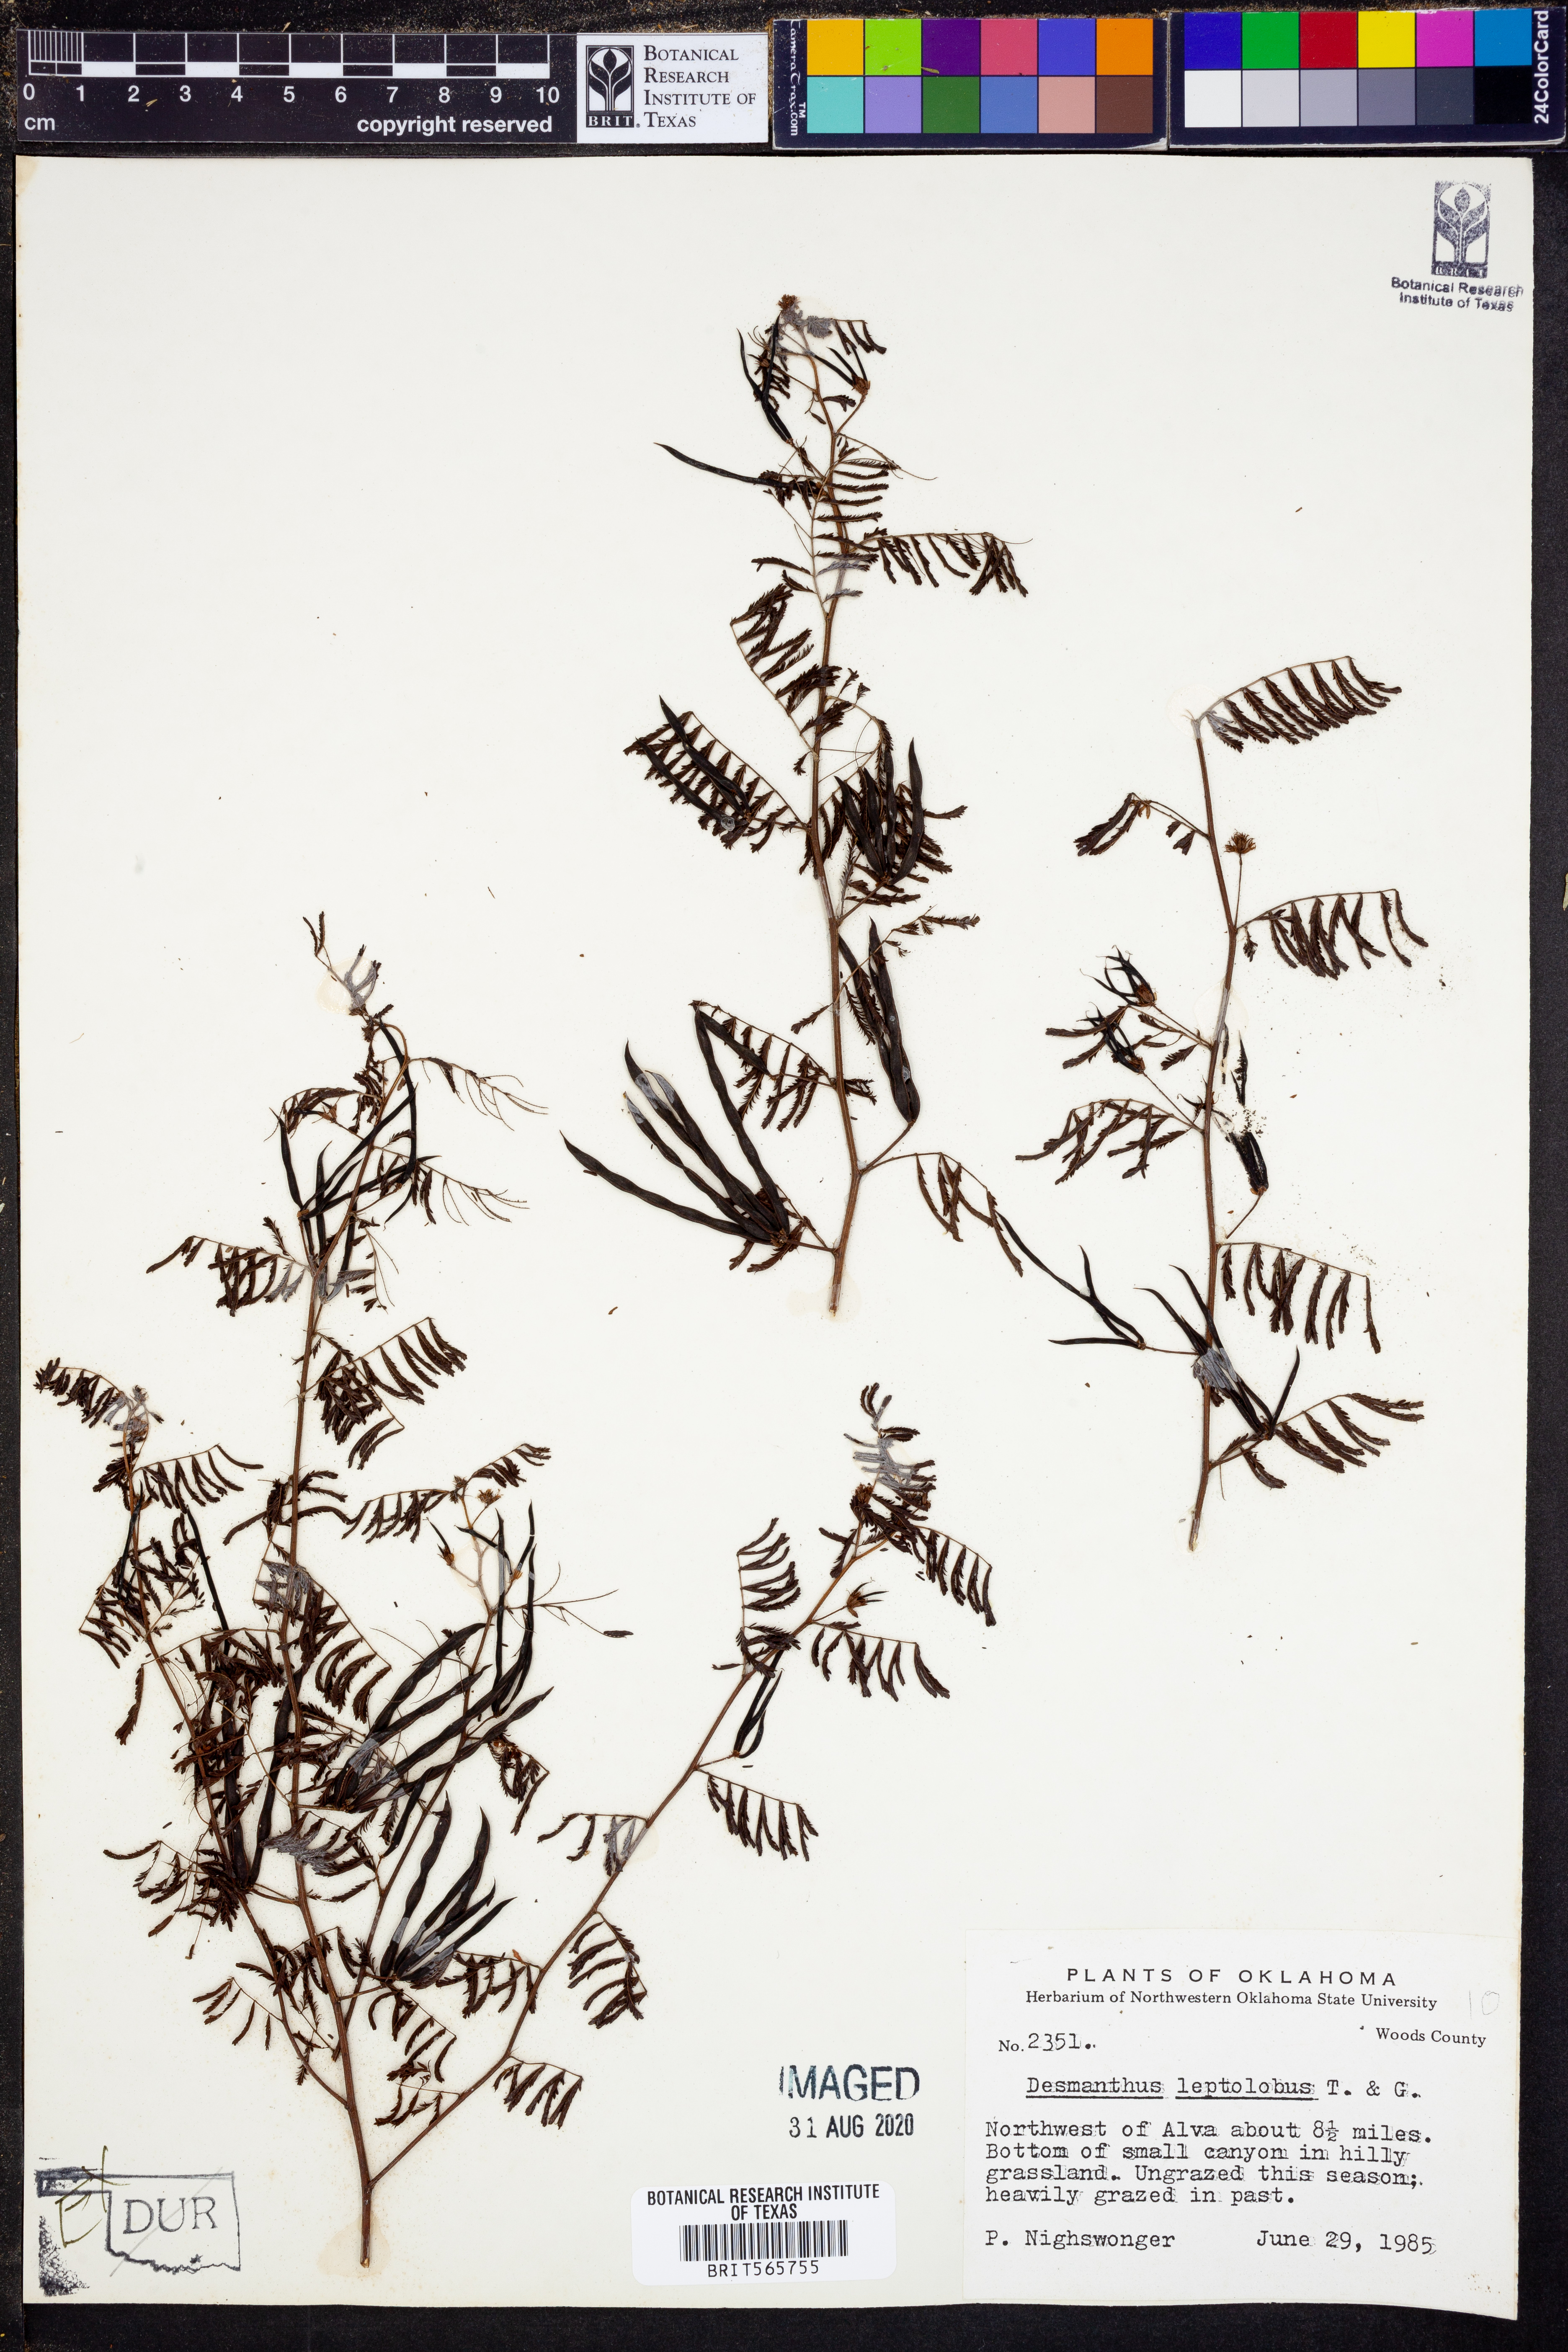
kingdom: Plantae
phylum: Tracheophyta
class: Magnoliopsida
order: Fabales
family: Fabaceae
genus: Desmanthus
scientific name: Desmanthus leptolobus
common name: Prairie-mimosa
